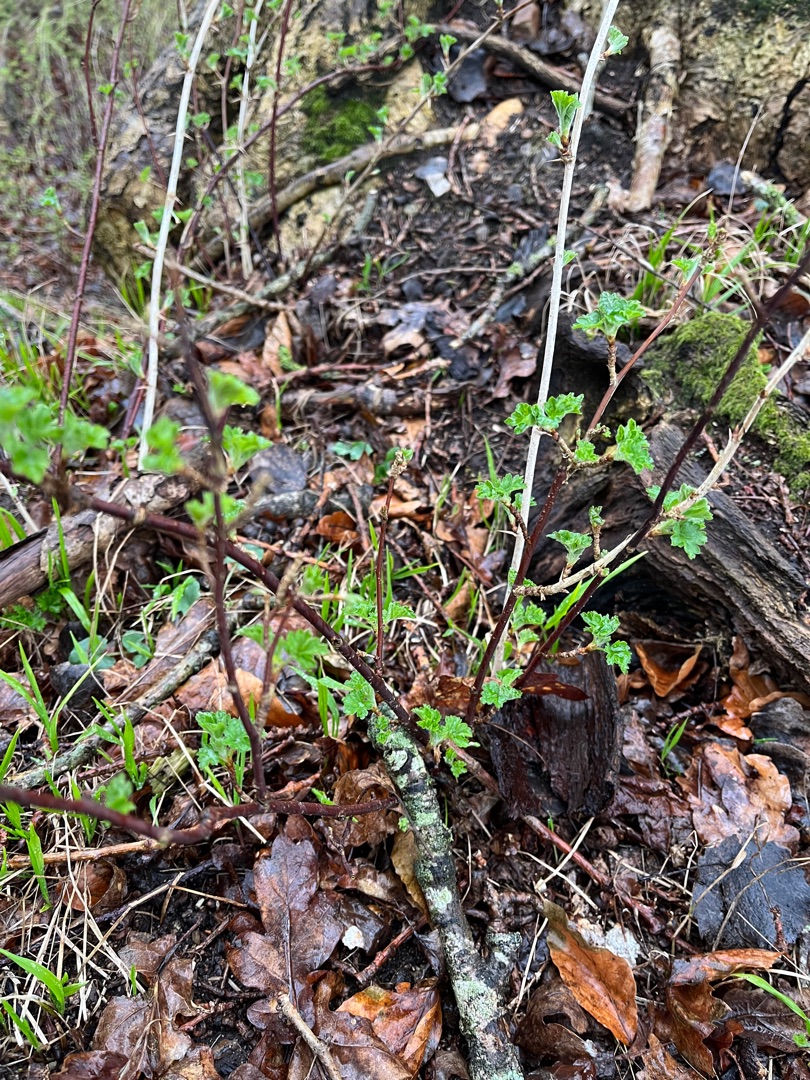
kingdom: Plantae
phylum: Tracheophyta
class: Magnoliopsida
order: Saxifragales
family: Grossulariaceae
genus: Ribes
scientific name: Ribes uva-crispa
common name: Stikkelsbær
